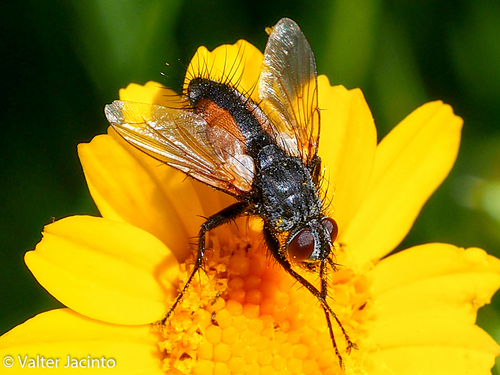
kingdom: Animalia
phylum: Arthropoda
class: Insecta
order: Diptera
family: Tachinidae
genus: Zeuxia
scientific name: Zeuxia zernyi
